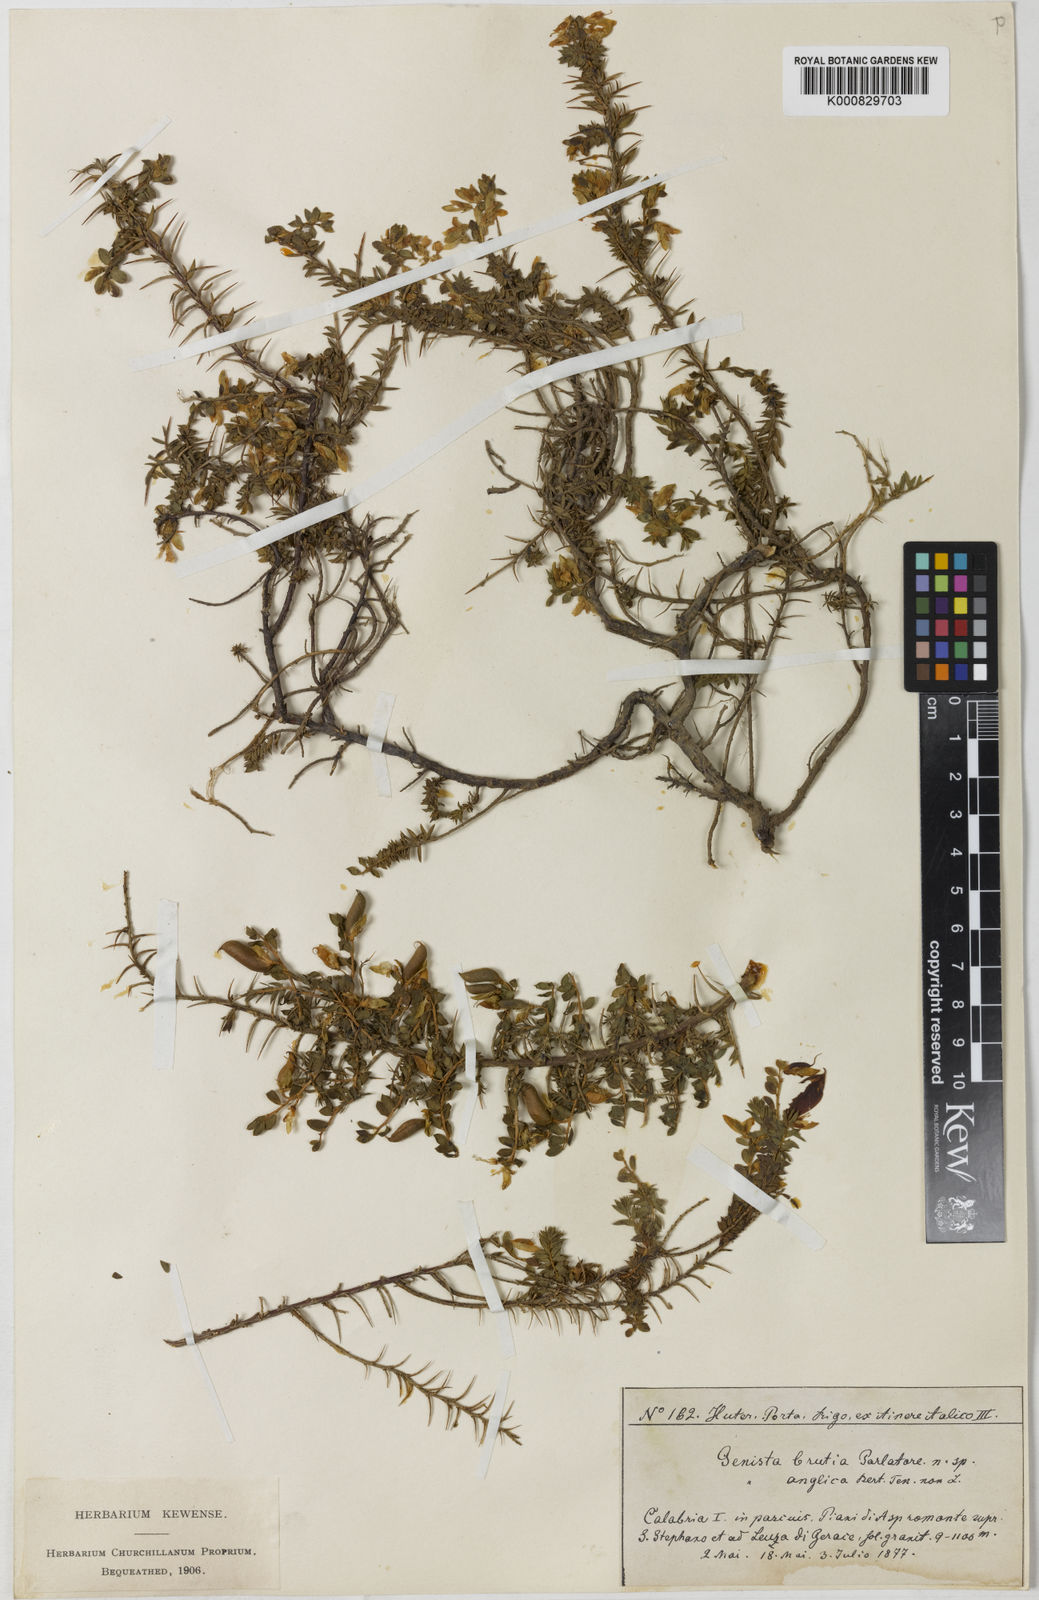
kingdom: Plantae
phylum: Tracheophyta
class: Magnoliopsida
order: Fabales
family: Fabaceae
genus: Genista
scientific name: Genista anglica
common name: Petty whin
